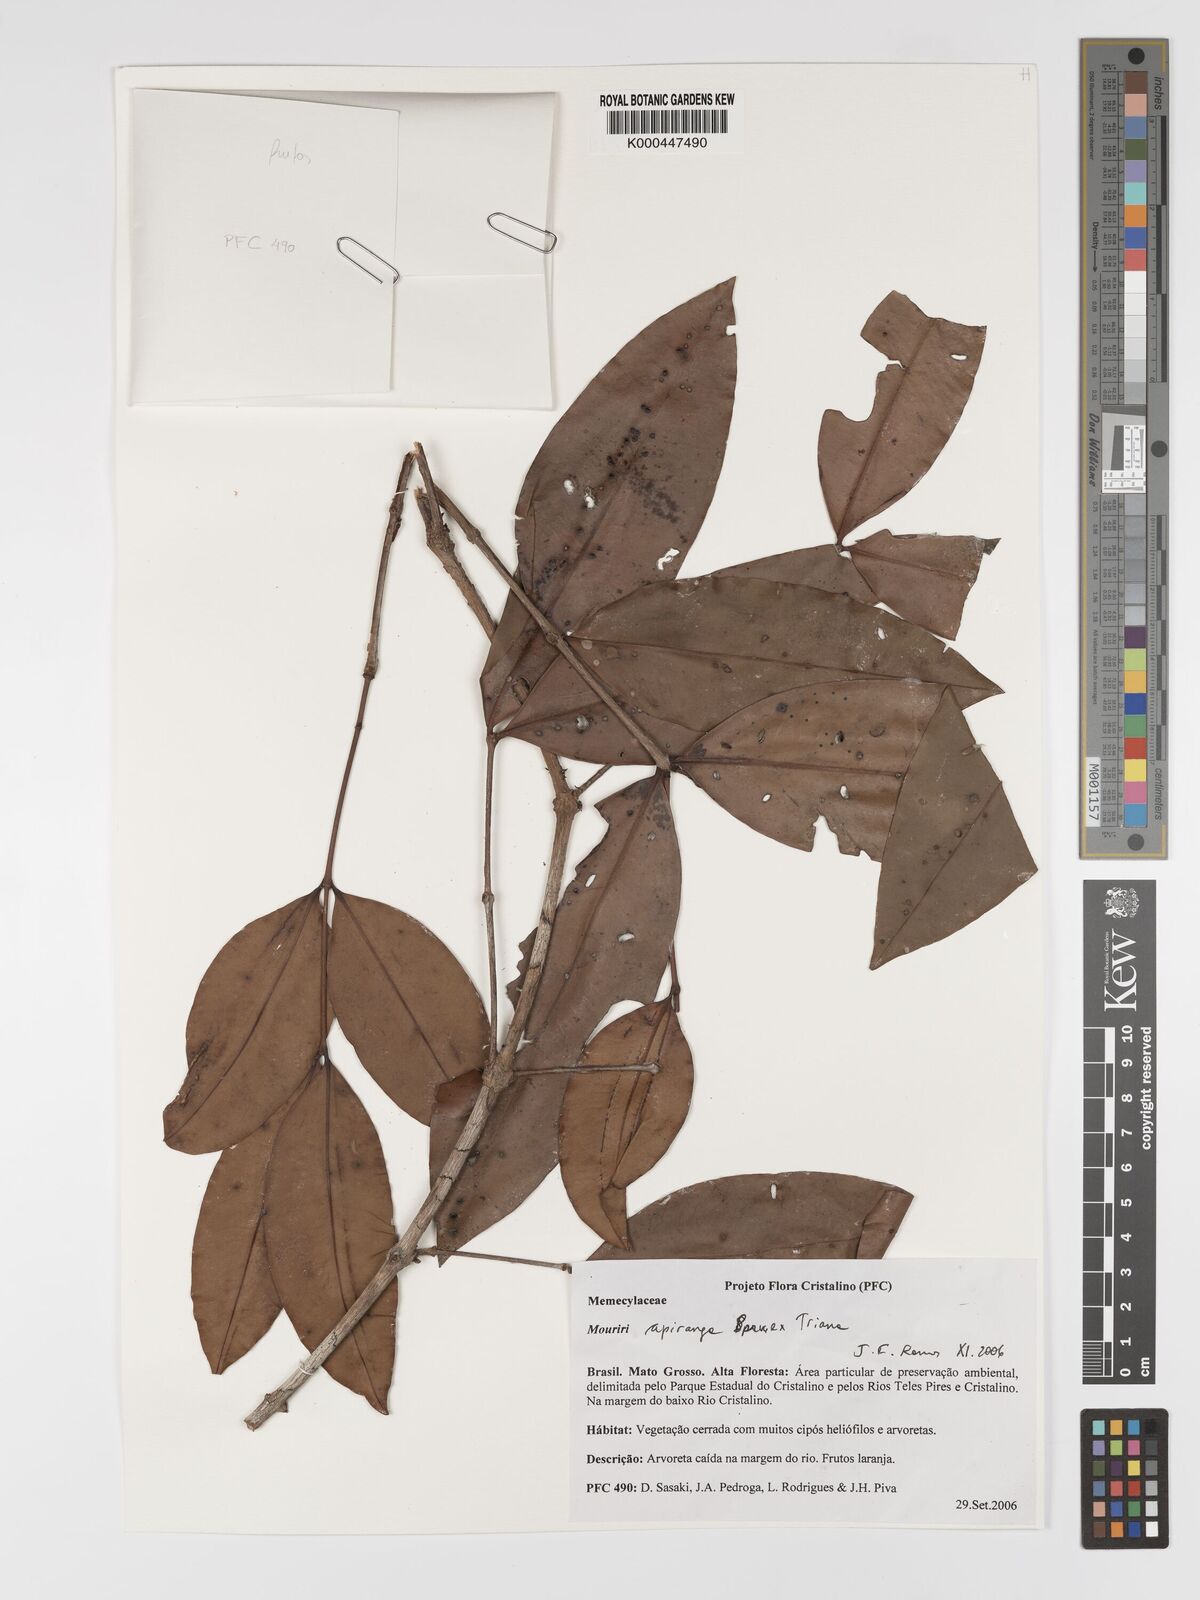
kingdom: Plantae
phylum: Tracheophyta
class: Magnoliopsida
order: Myrtales
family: Melastomataceae
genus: Mouriri
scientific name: Mouriri apiranga
